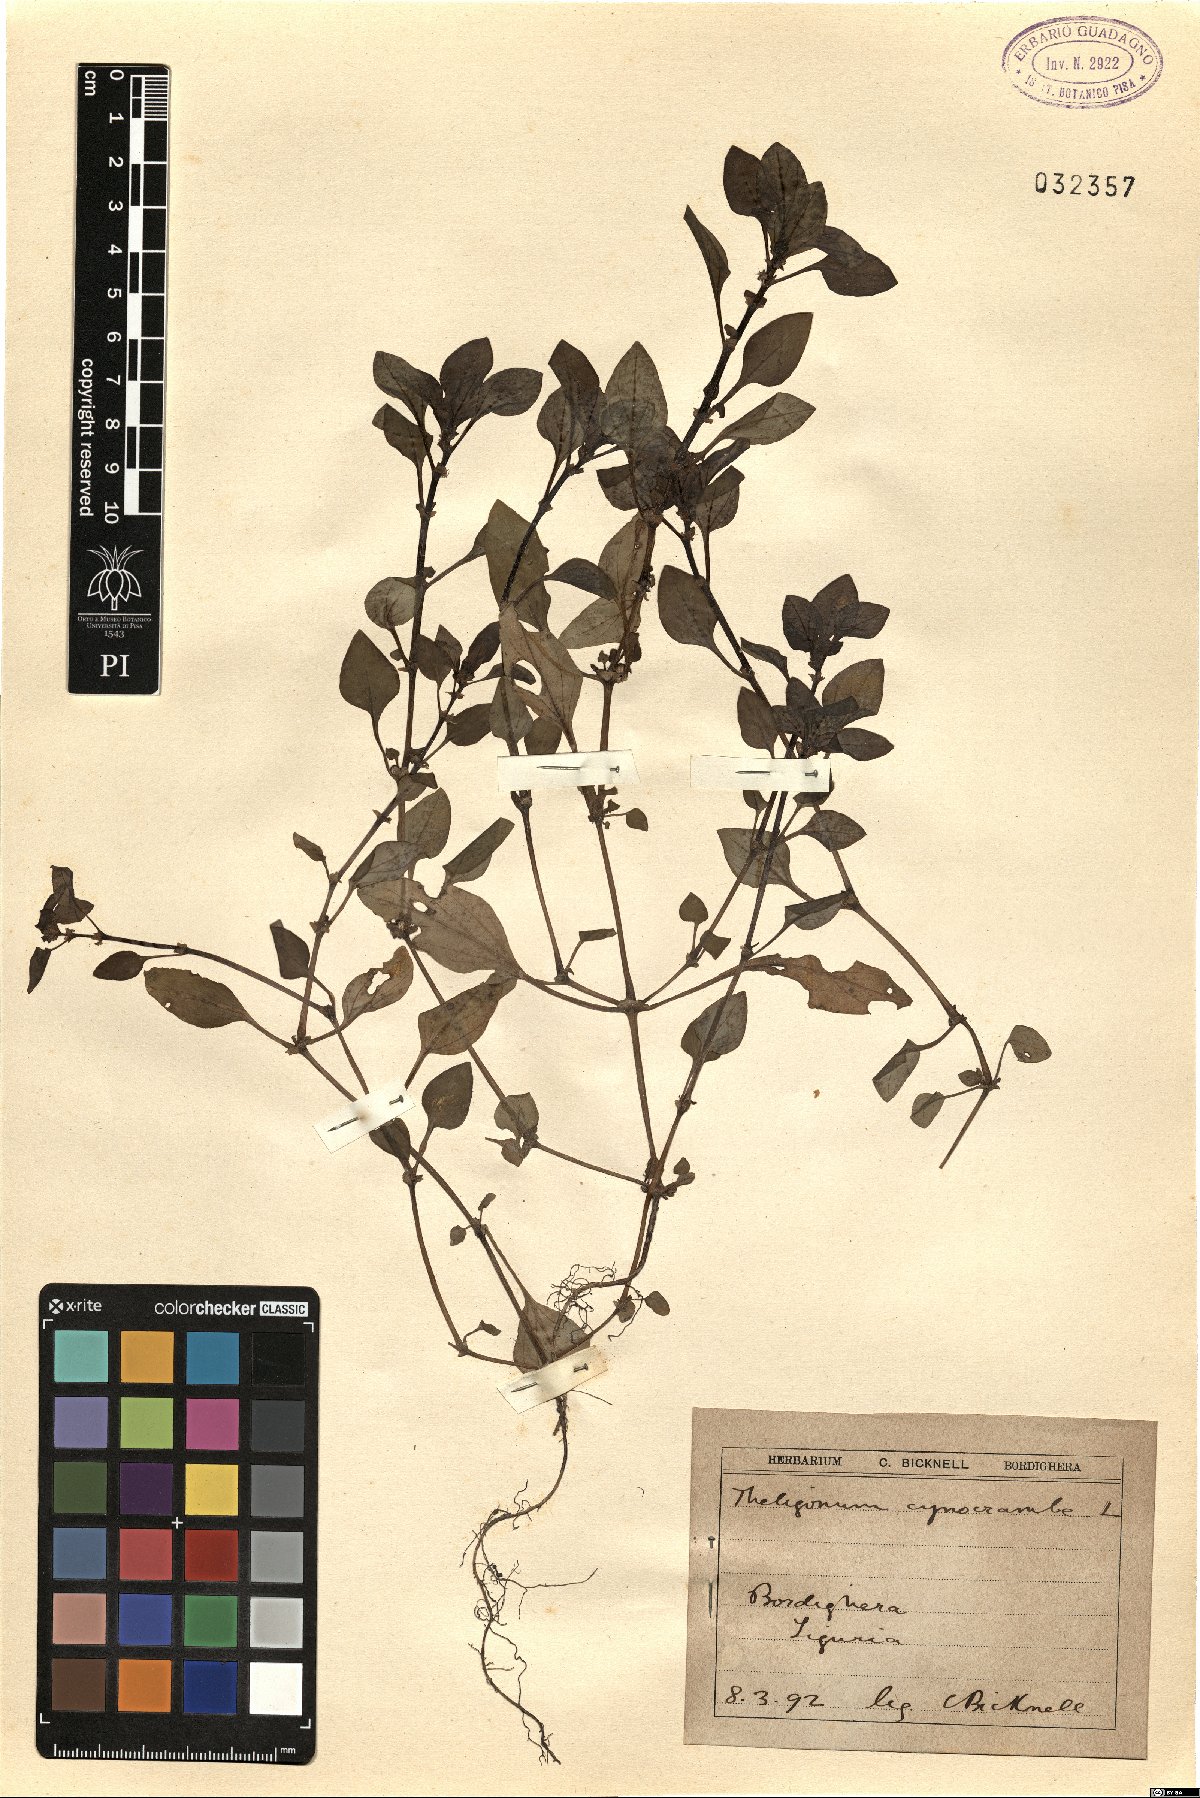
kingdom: Plantae
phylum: Tracheophyta
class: Magnoliopsida
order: Gentianales
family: Rubiaceae
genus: Theligonum
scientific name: Theligonum cynocrambe
